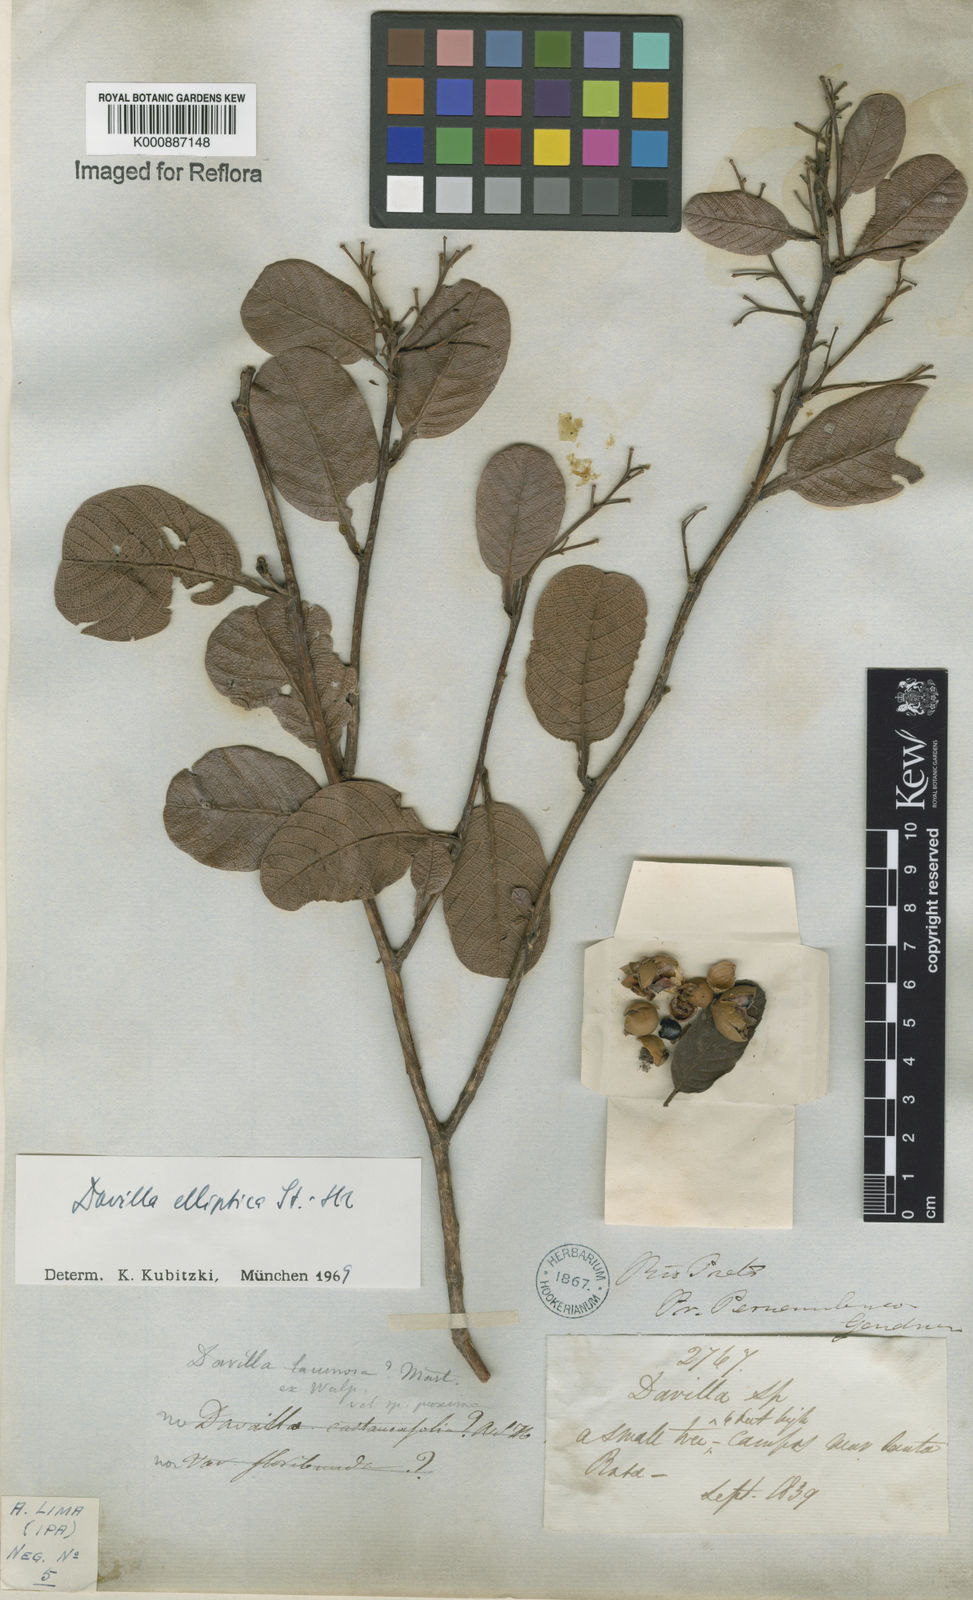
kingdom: Plantae
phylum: Tracheophyta
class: Magnoliopsida
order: Dilleniales
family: Dilleniaceae
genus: Davilla
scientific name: Davilla elliptica
